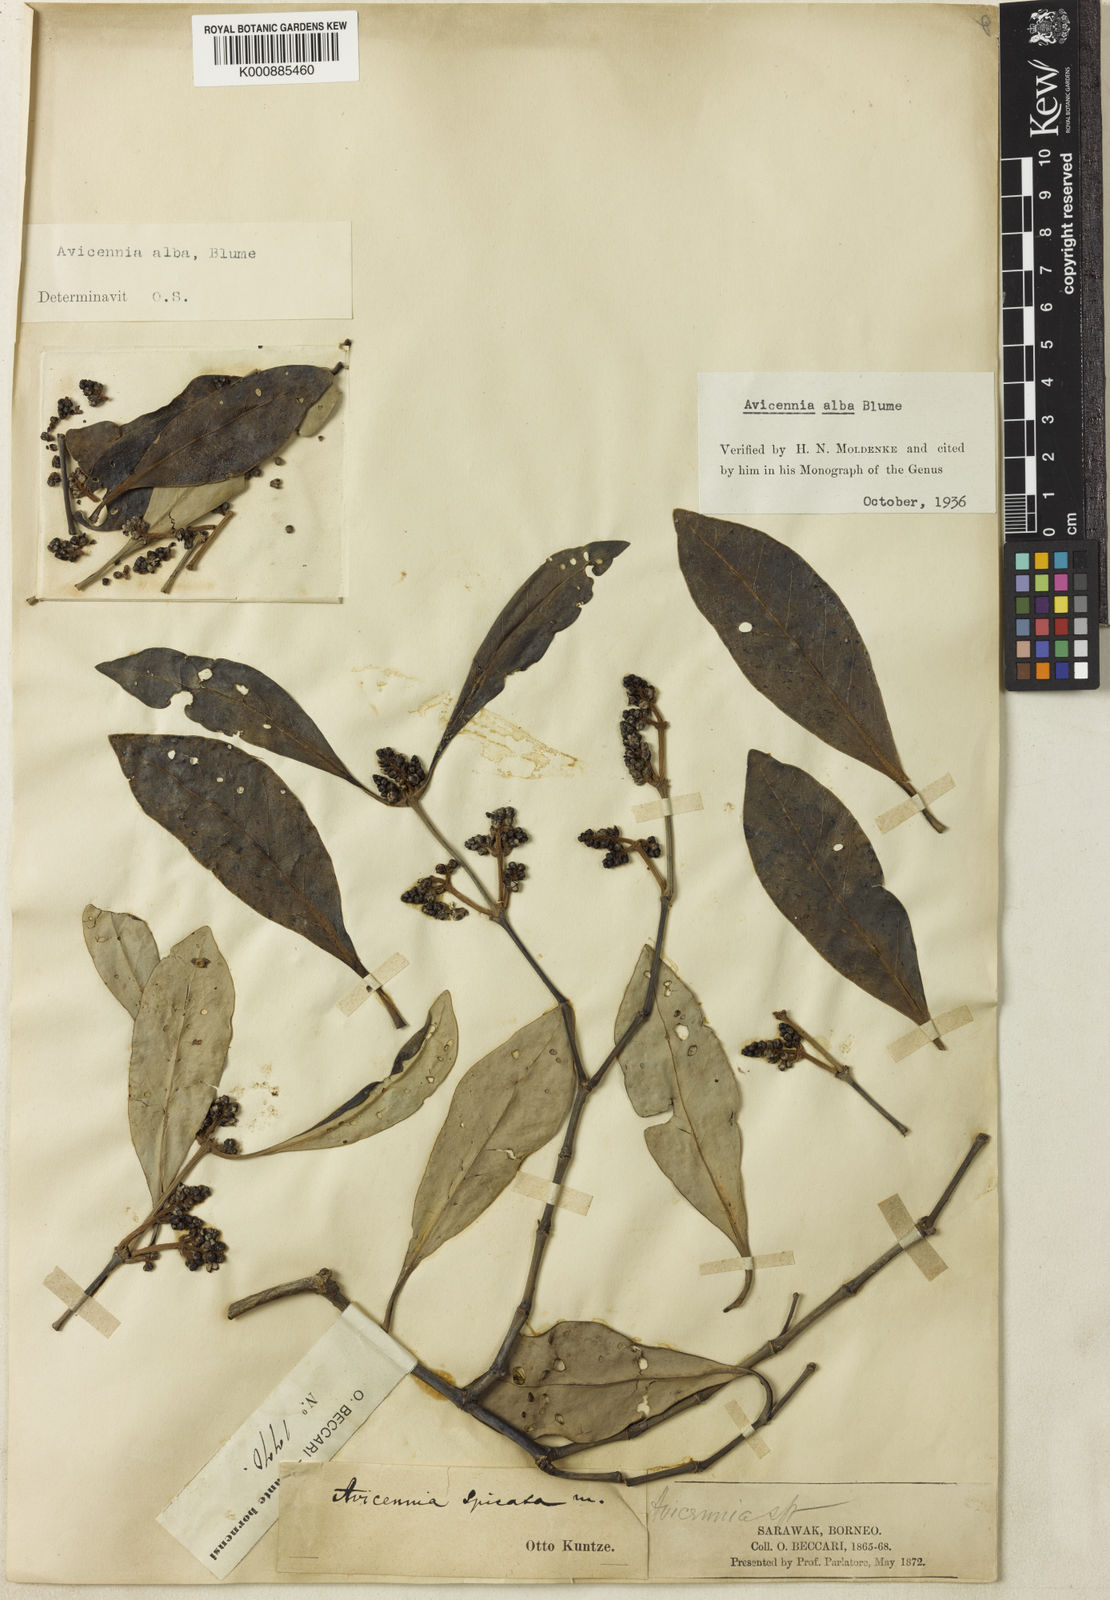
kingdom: Plantae
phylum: Tracheophyta
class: Magnoliopsida
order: Lamiales
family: Acanthaceae
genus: Avicennia
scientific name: Avicennia alba
